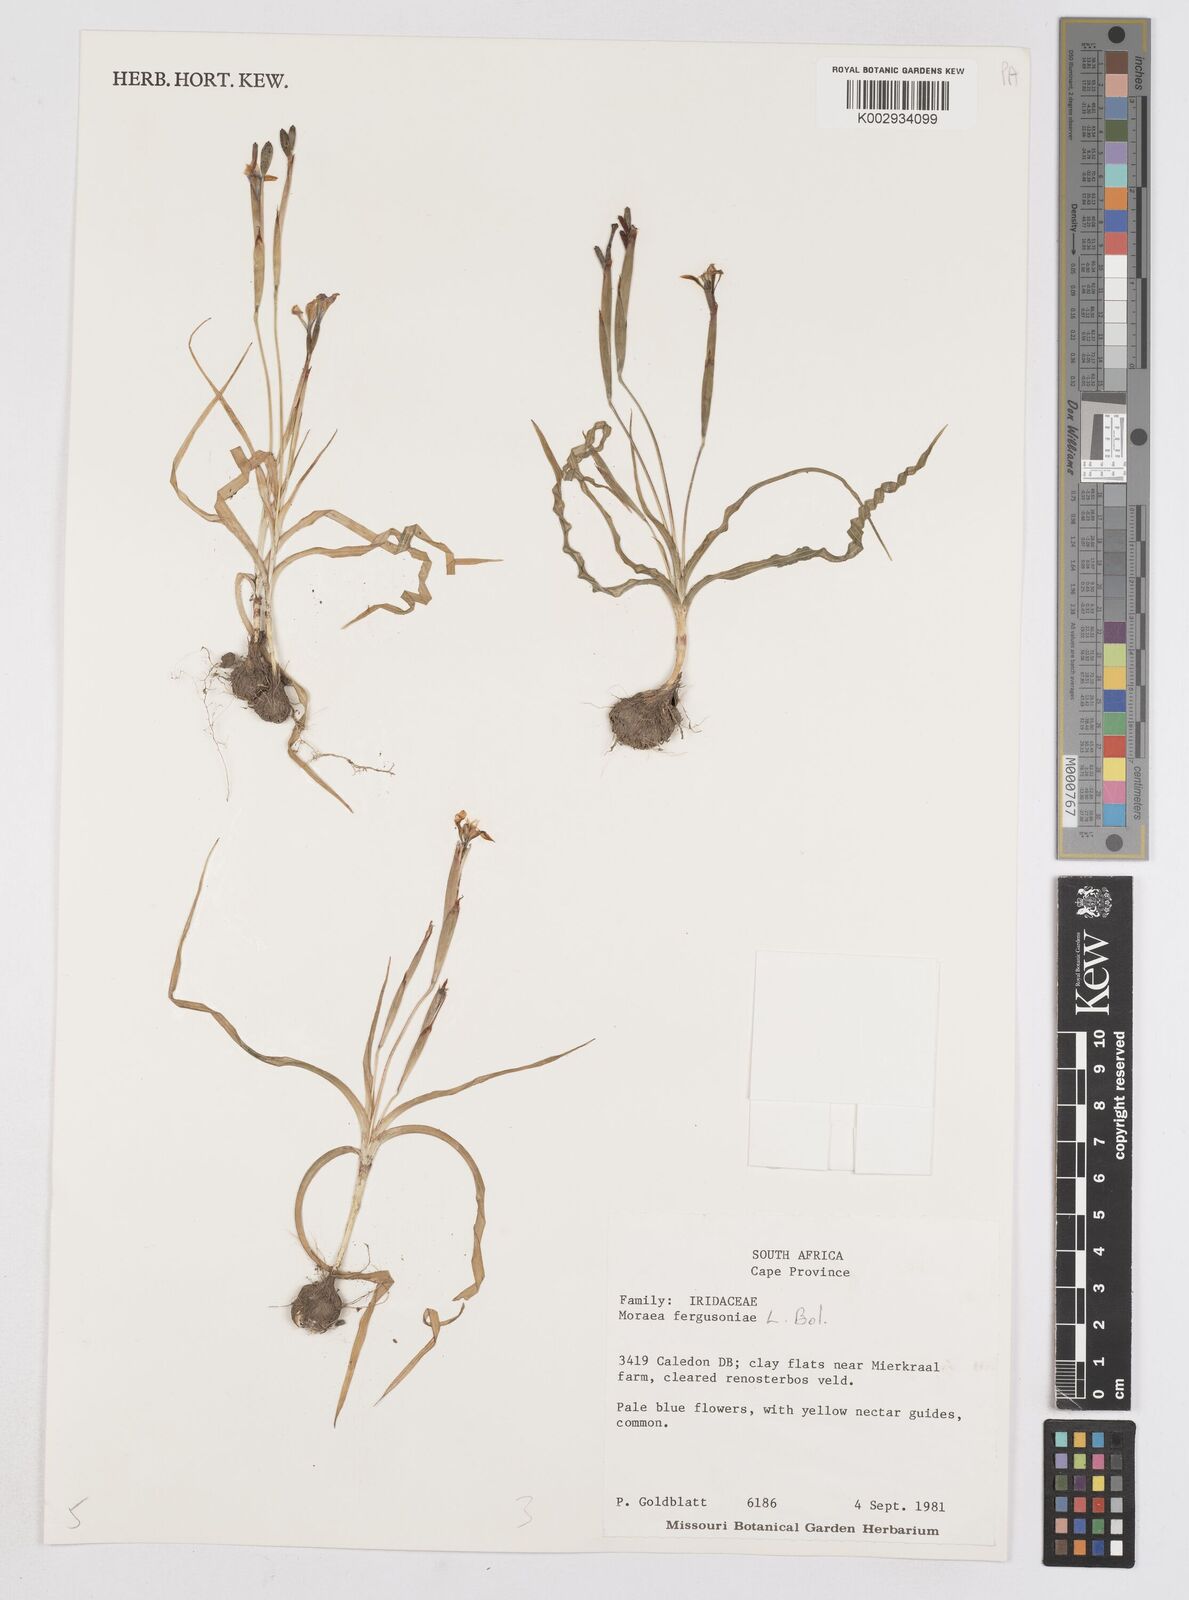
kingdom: Plantae
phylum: Tracheophyta
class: Liliopsida
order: Asparagales
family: Iridaceae
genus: Moraea
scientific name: Moraea fergusoniae
